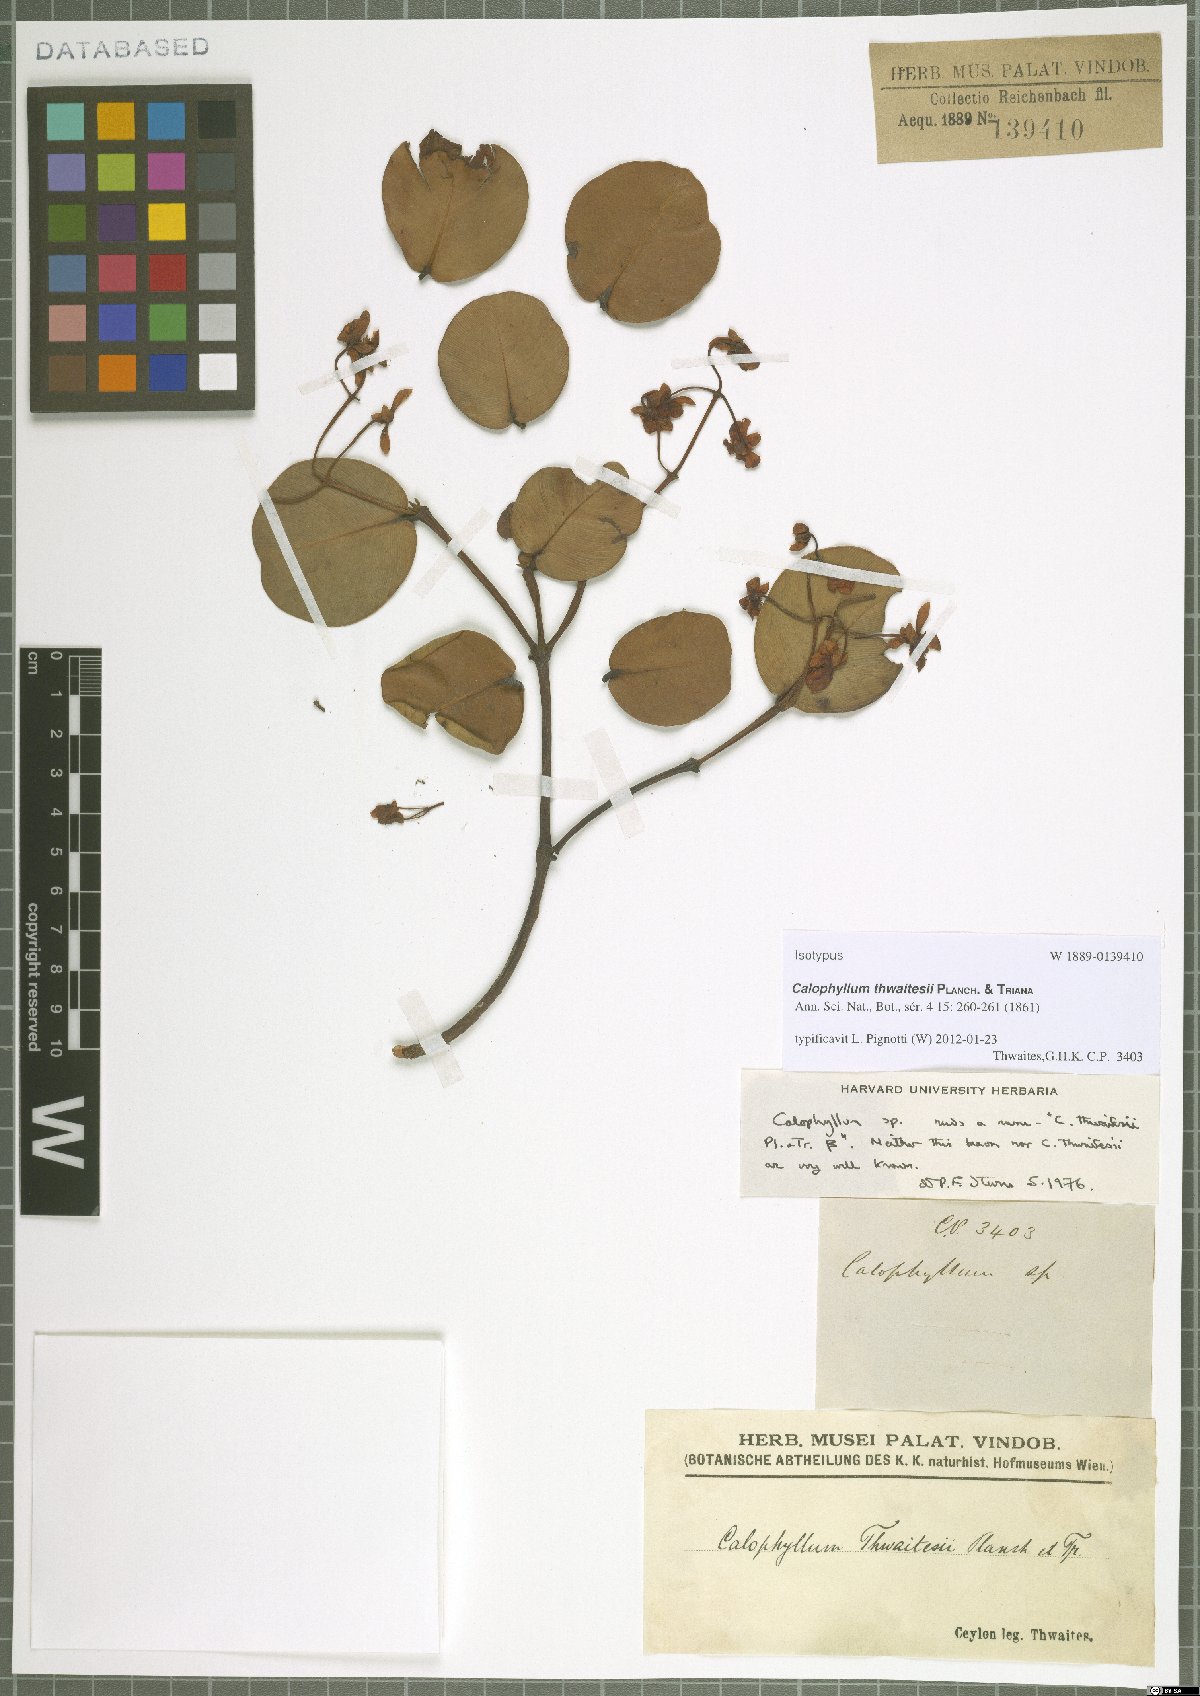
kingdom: Plantae
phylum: Tracheophyta
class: Magnoliopsida
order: Malpighiales
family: Calophyllaceae
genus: Calophyllum
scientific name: Calophyllum thwaitesii
